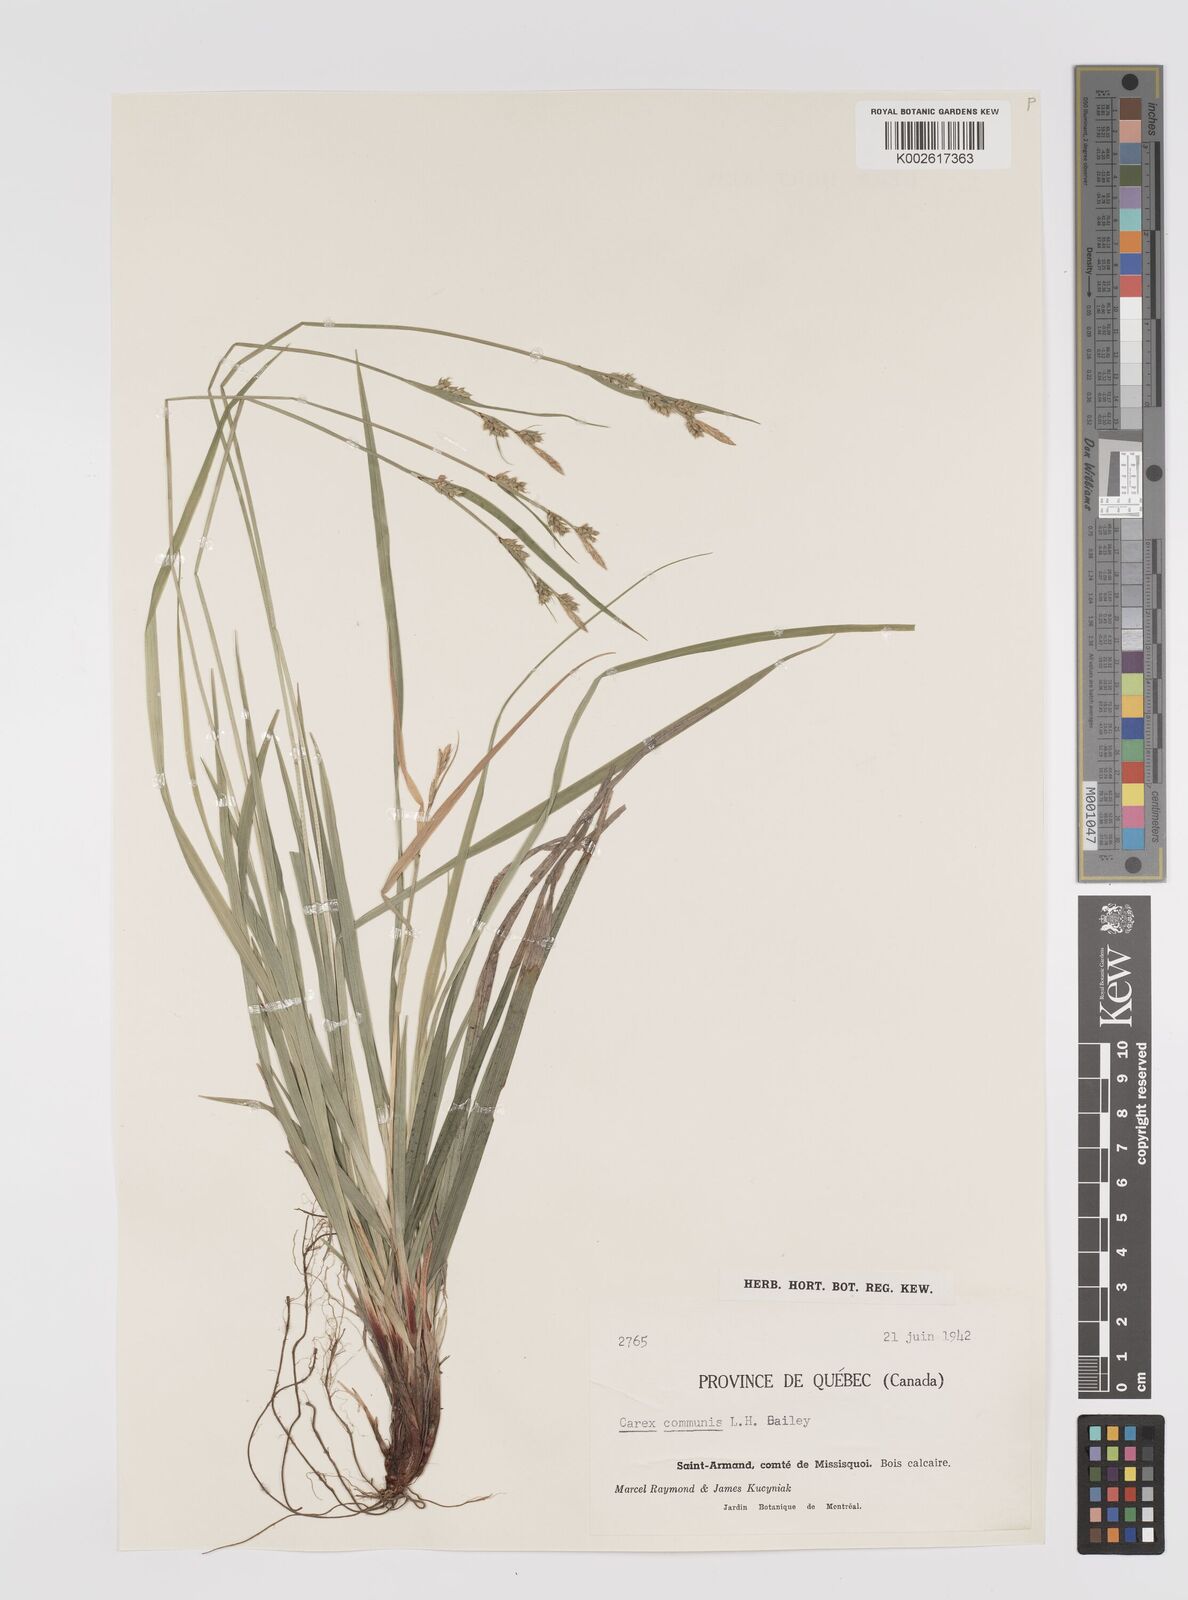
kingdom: Plantae
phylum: Tracheophyta
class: Liliopsida
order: Poales
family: Cyperaceae
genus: Carex
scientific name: Carex communis
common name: Colonial oak sedge
